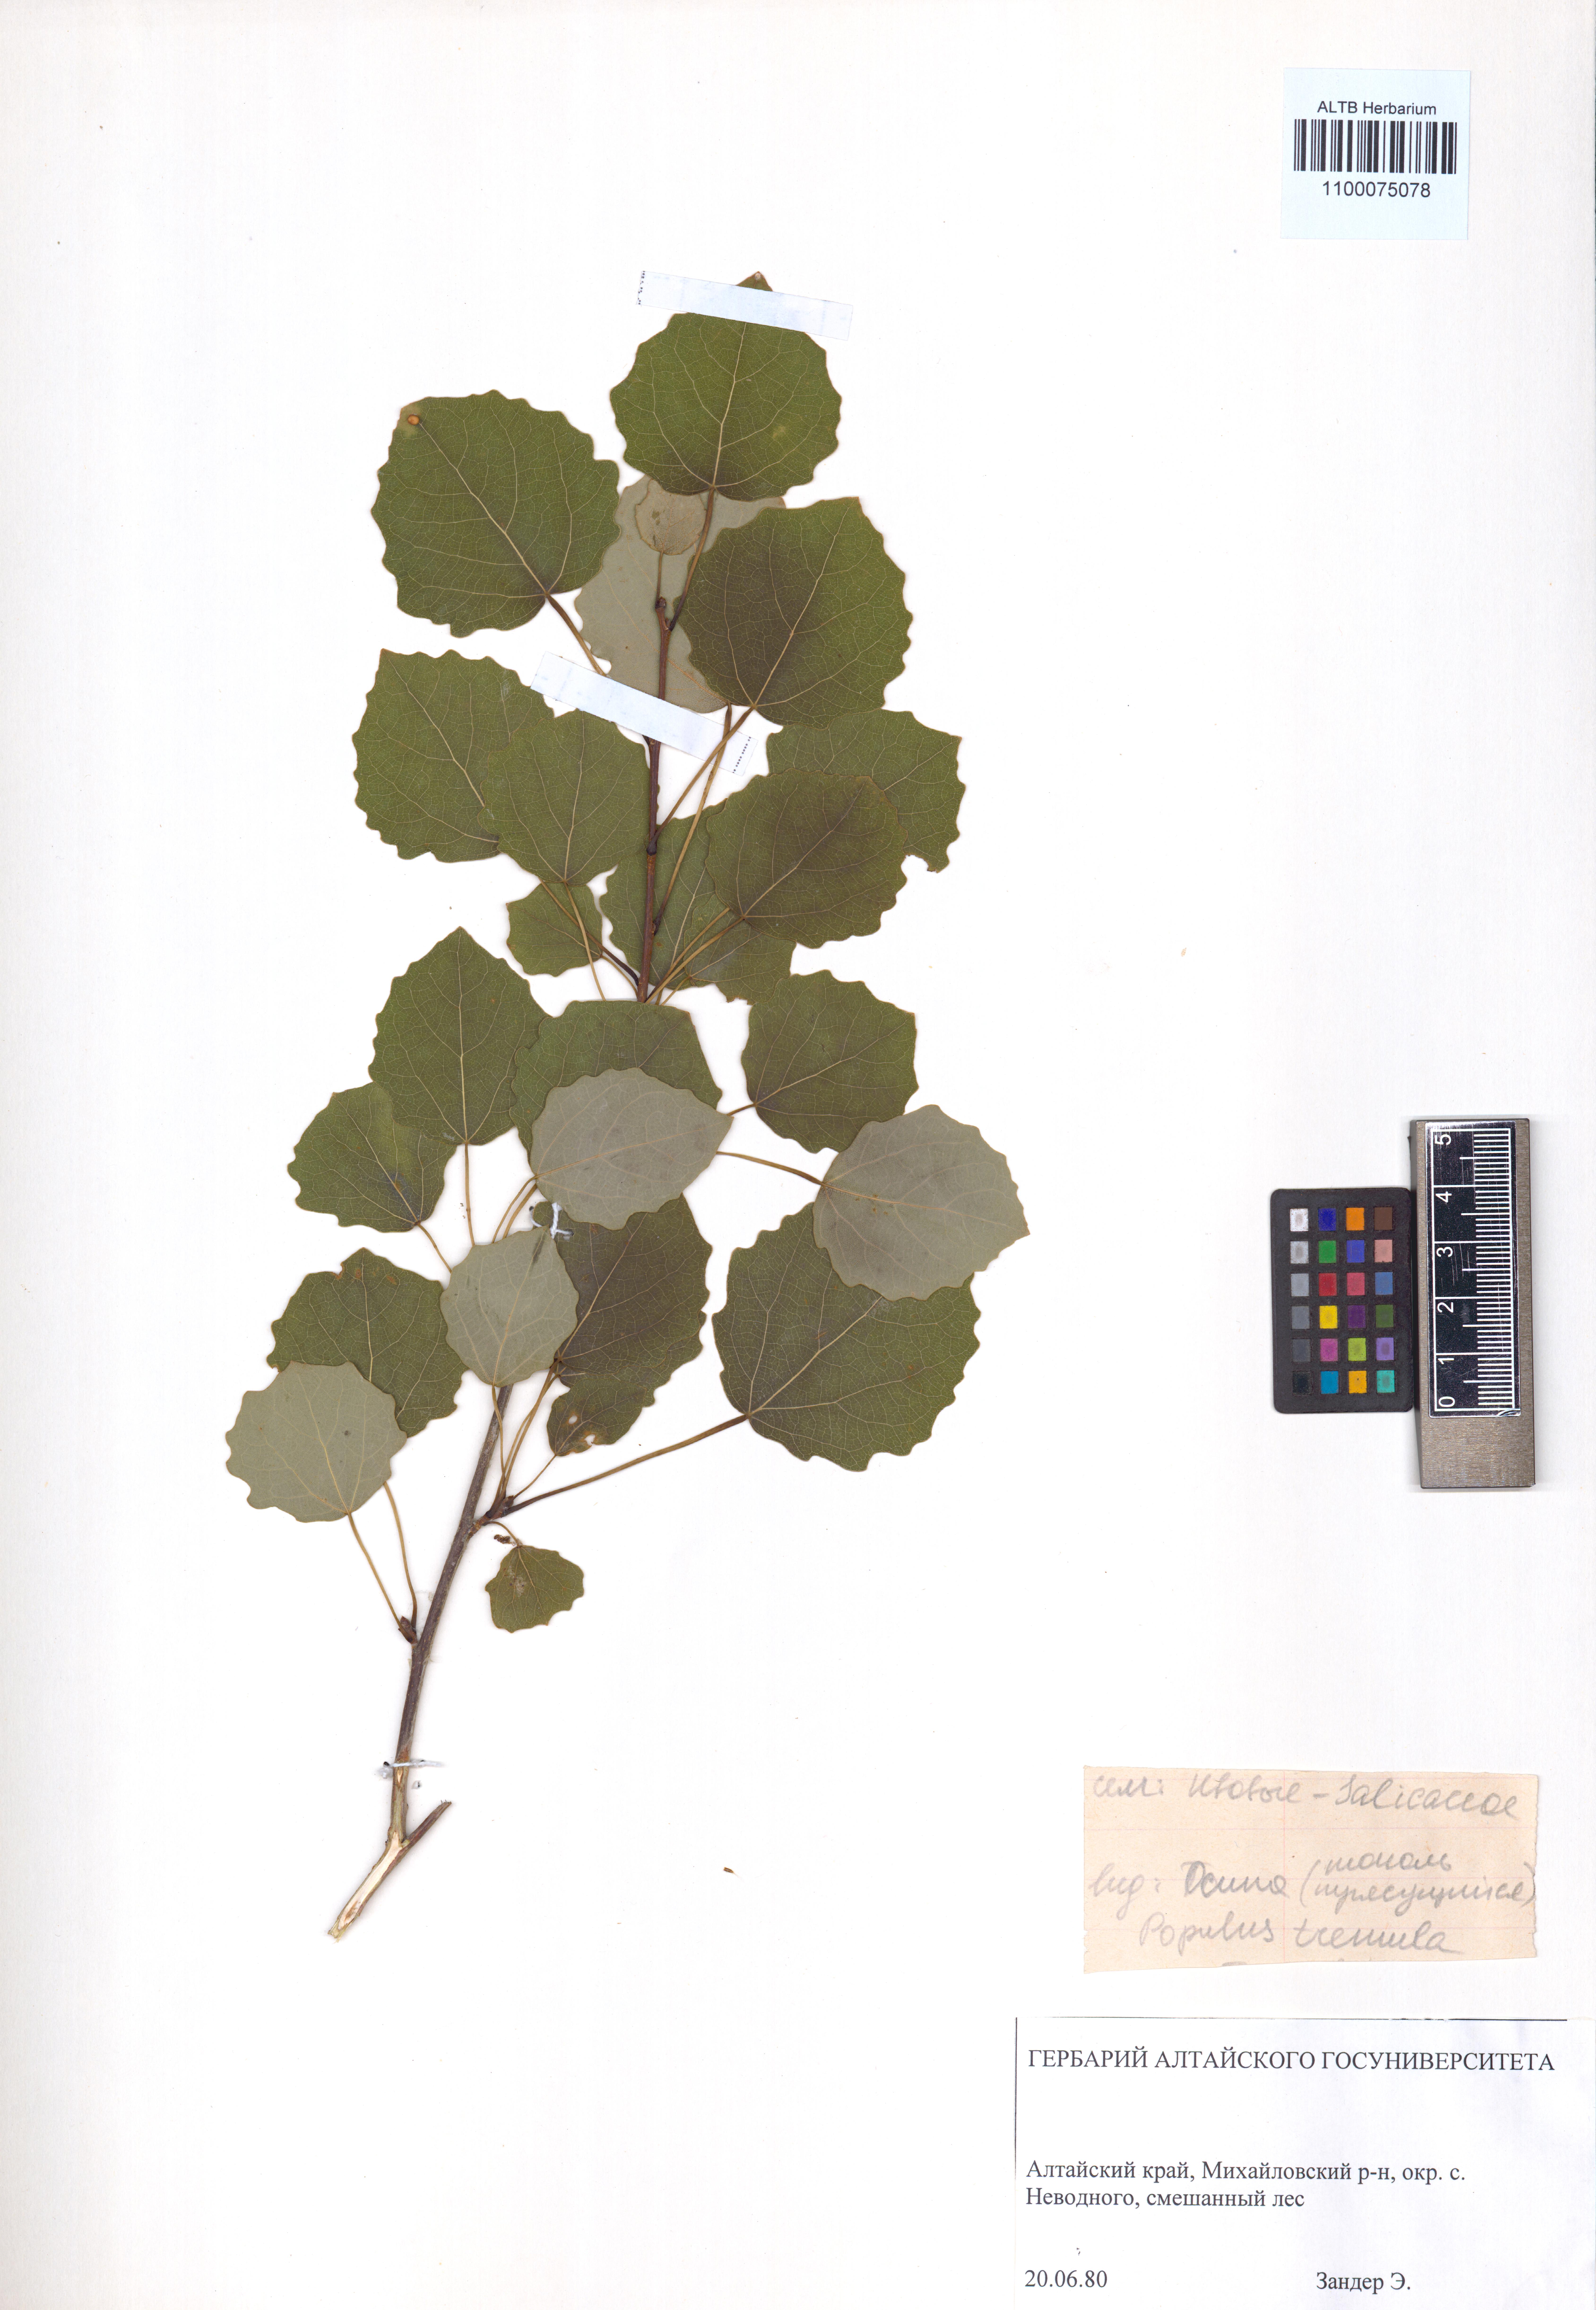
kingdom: Plantae
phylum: Tracheophyta
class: Magnoliopsida
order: Malpighiales
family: Salicaceae
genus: Populus
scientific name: Populus tremula
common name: European aspen
